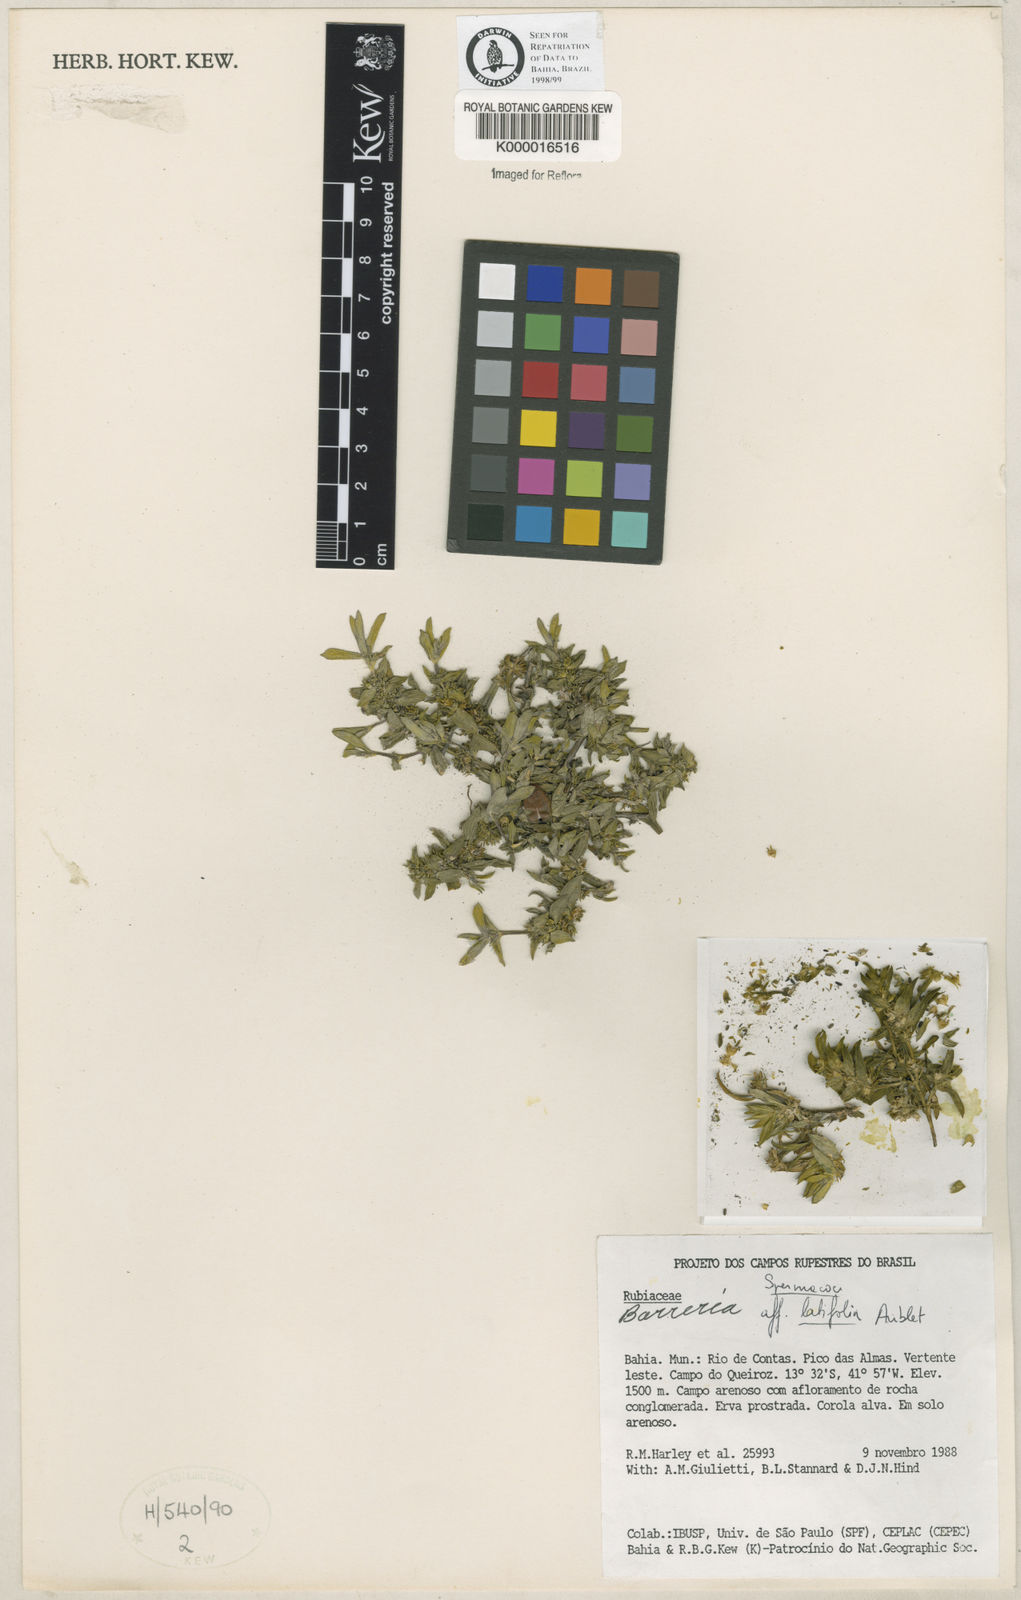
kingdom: Plantae
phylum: Tracheophyta
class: Magnoliopsida
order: Gentianales
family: Rubiaceae
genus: Spermacoce
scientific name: Spermacoce latifolia
